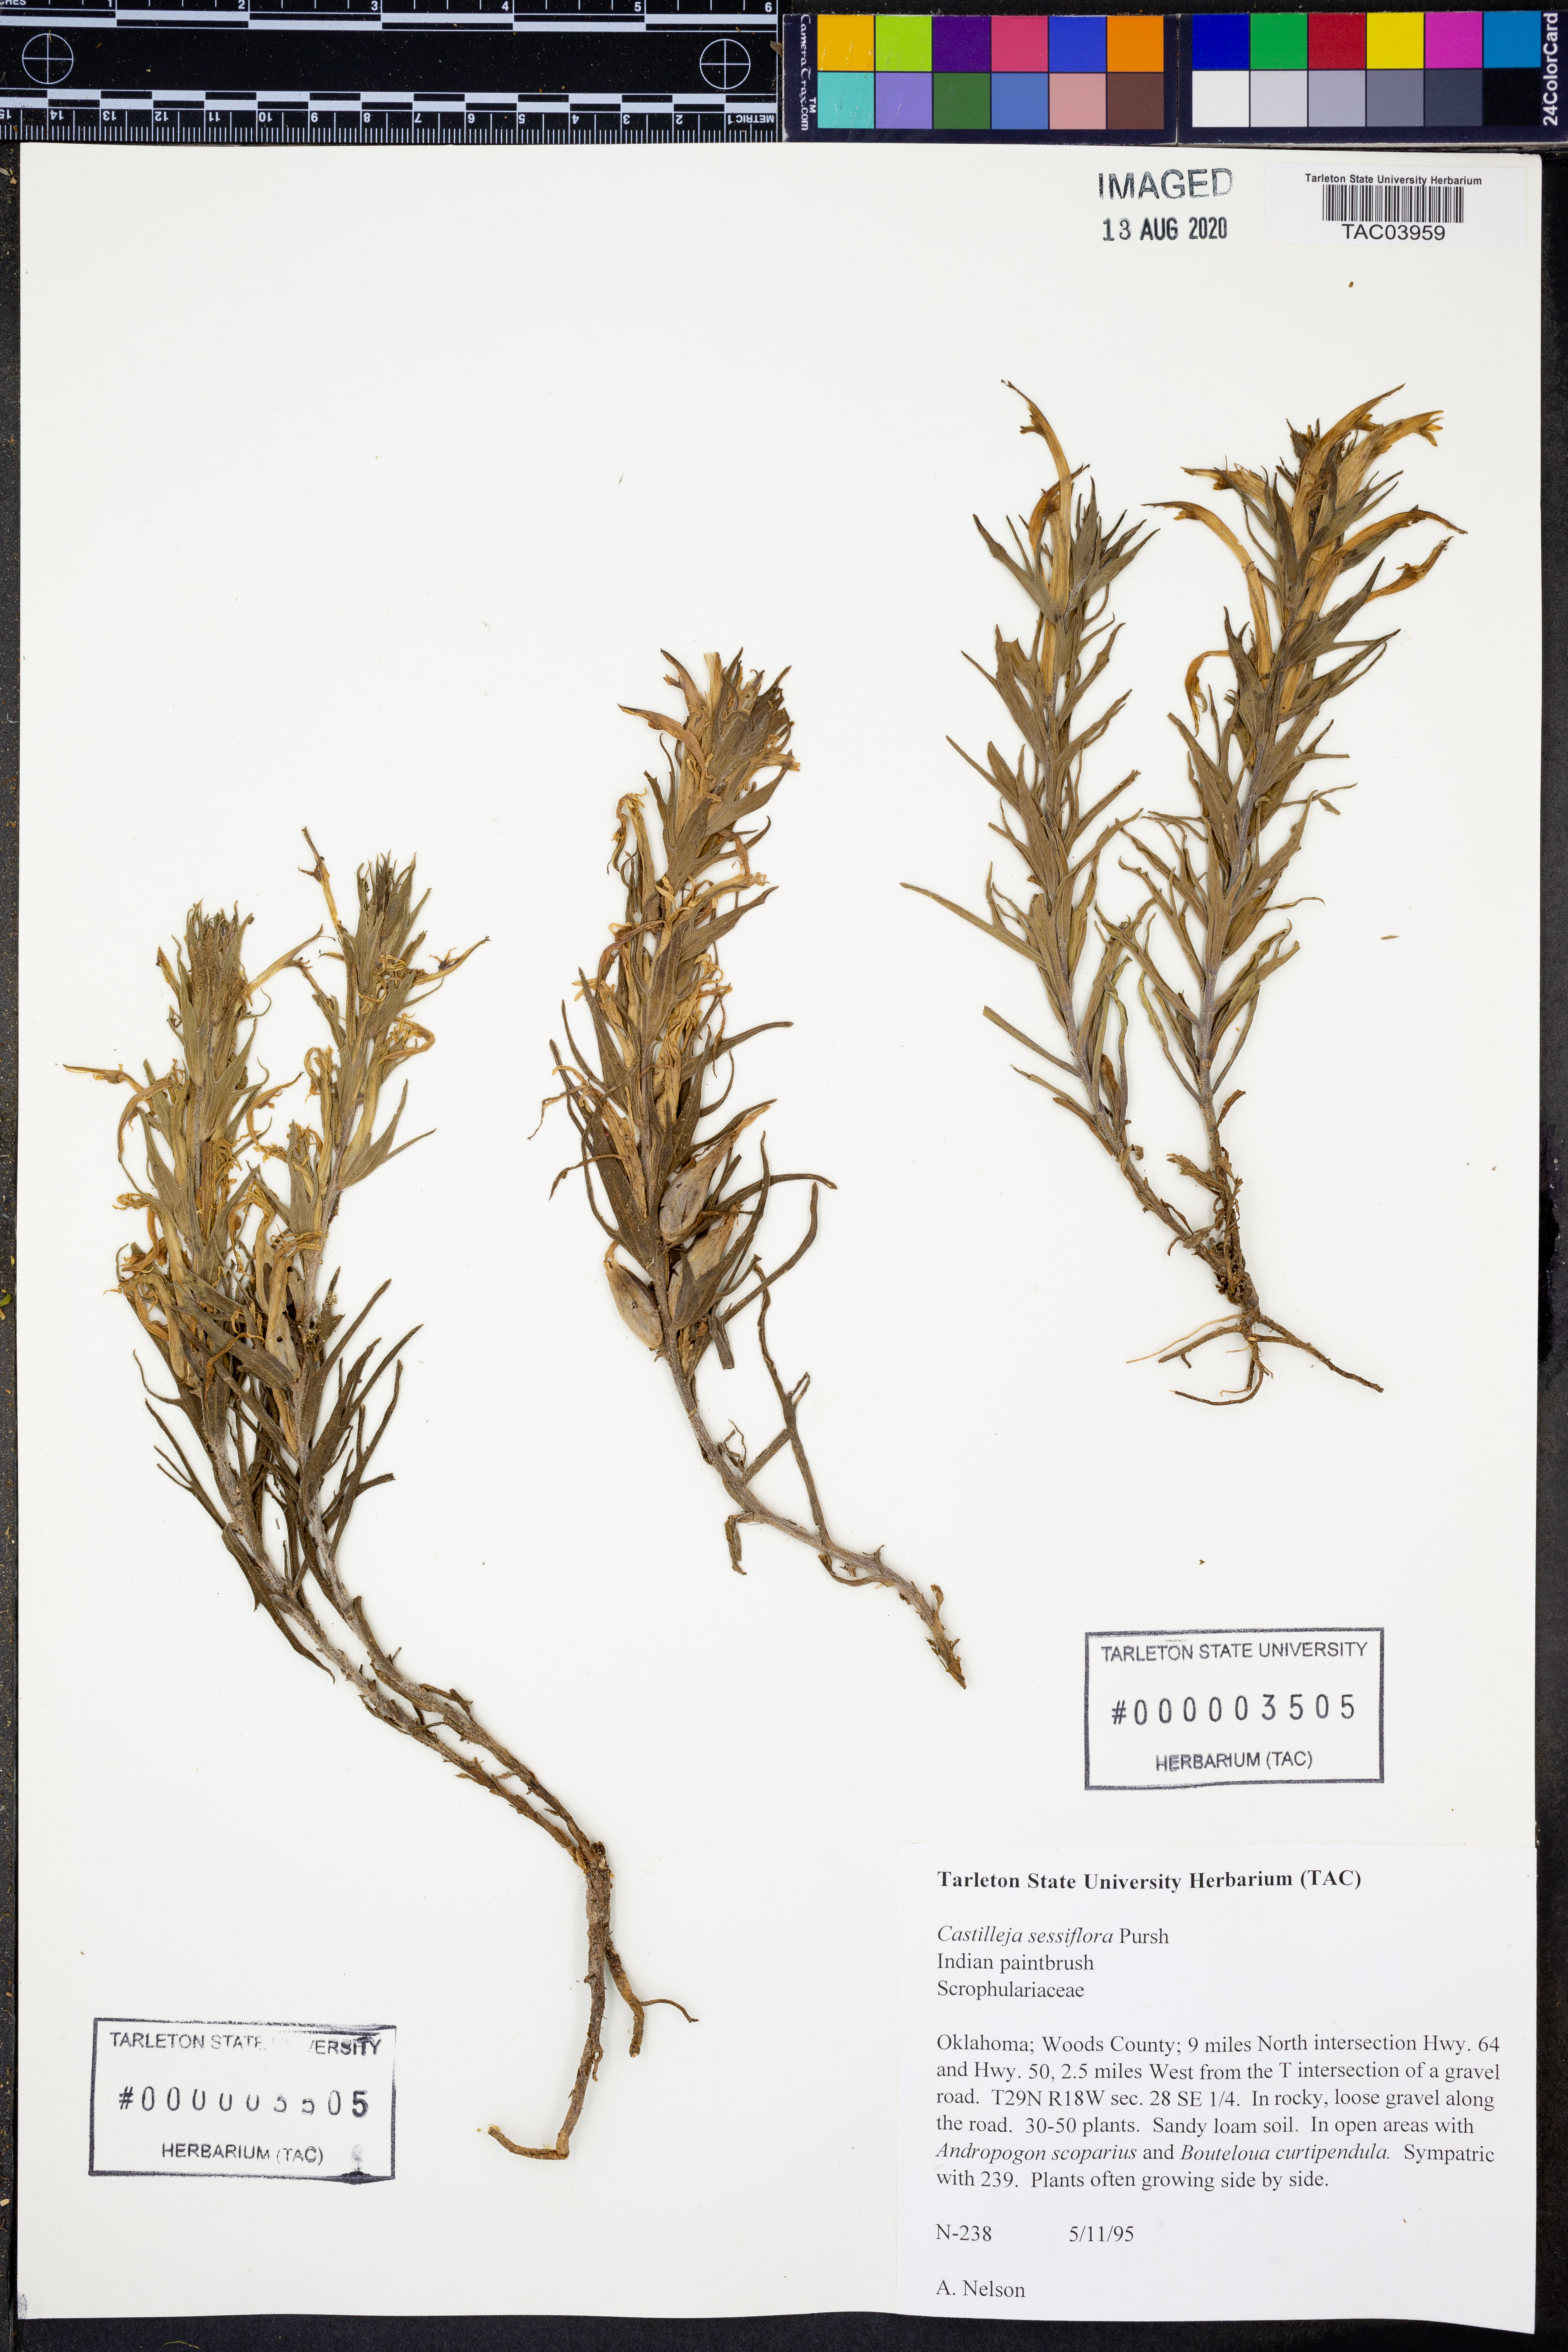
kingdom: Plantae
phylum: Tracheophyta
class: Magnoliopsida
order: Lamiales
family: Orobanchaceae
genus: Castilleja
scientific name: Castilleja sessiliflora
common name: Downy paintbrush
